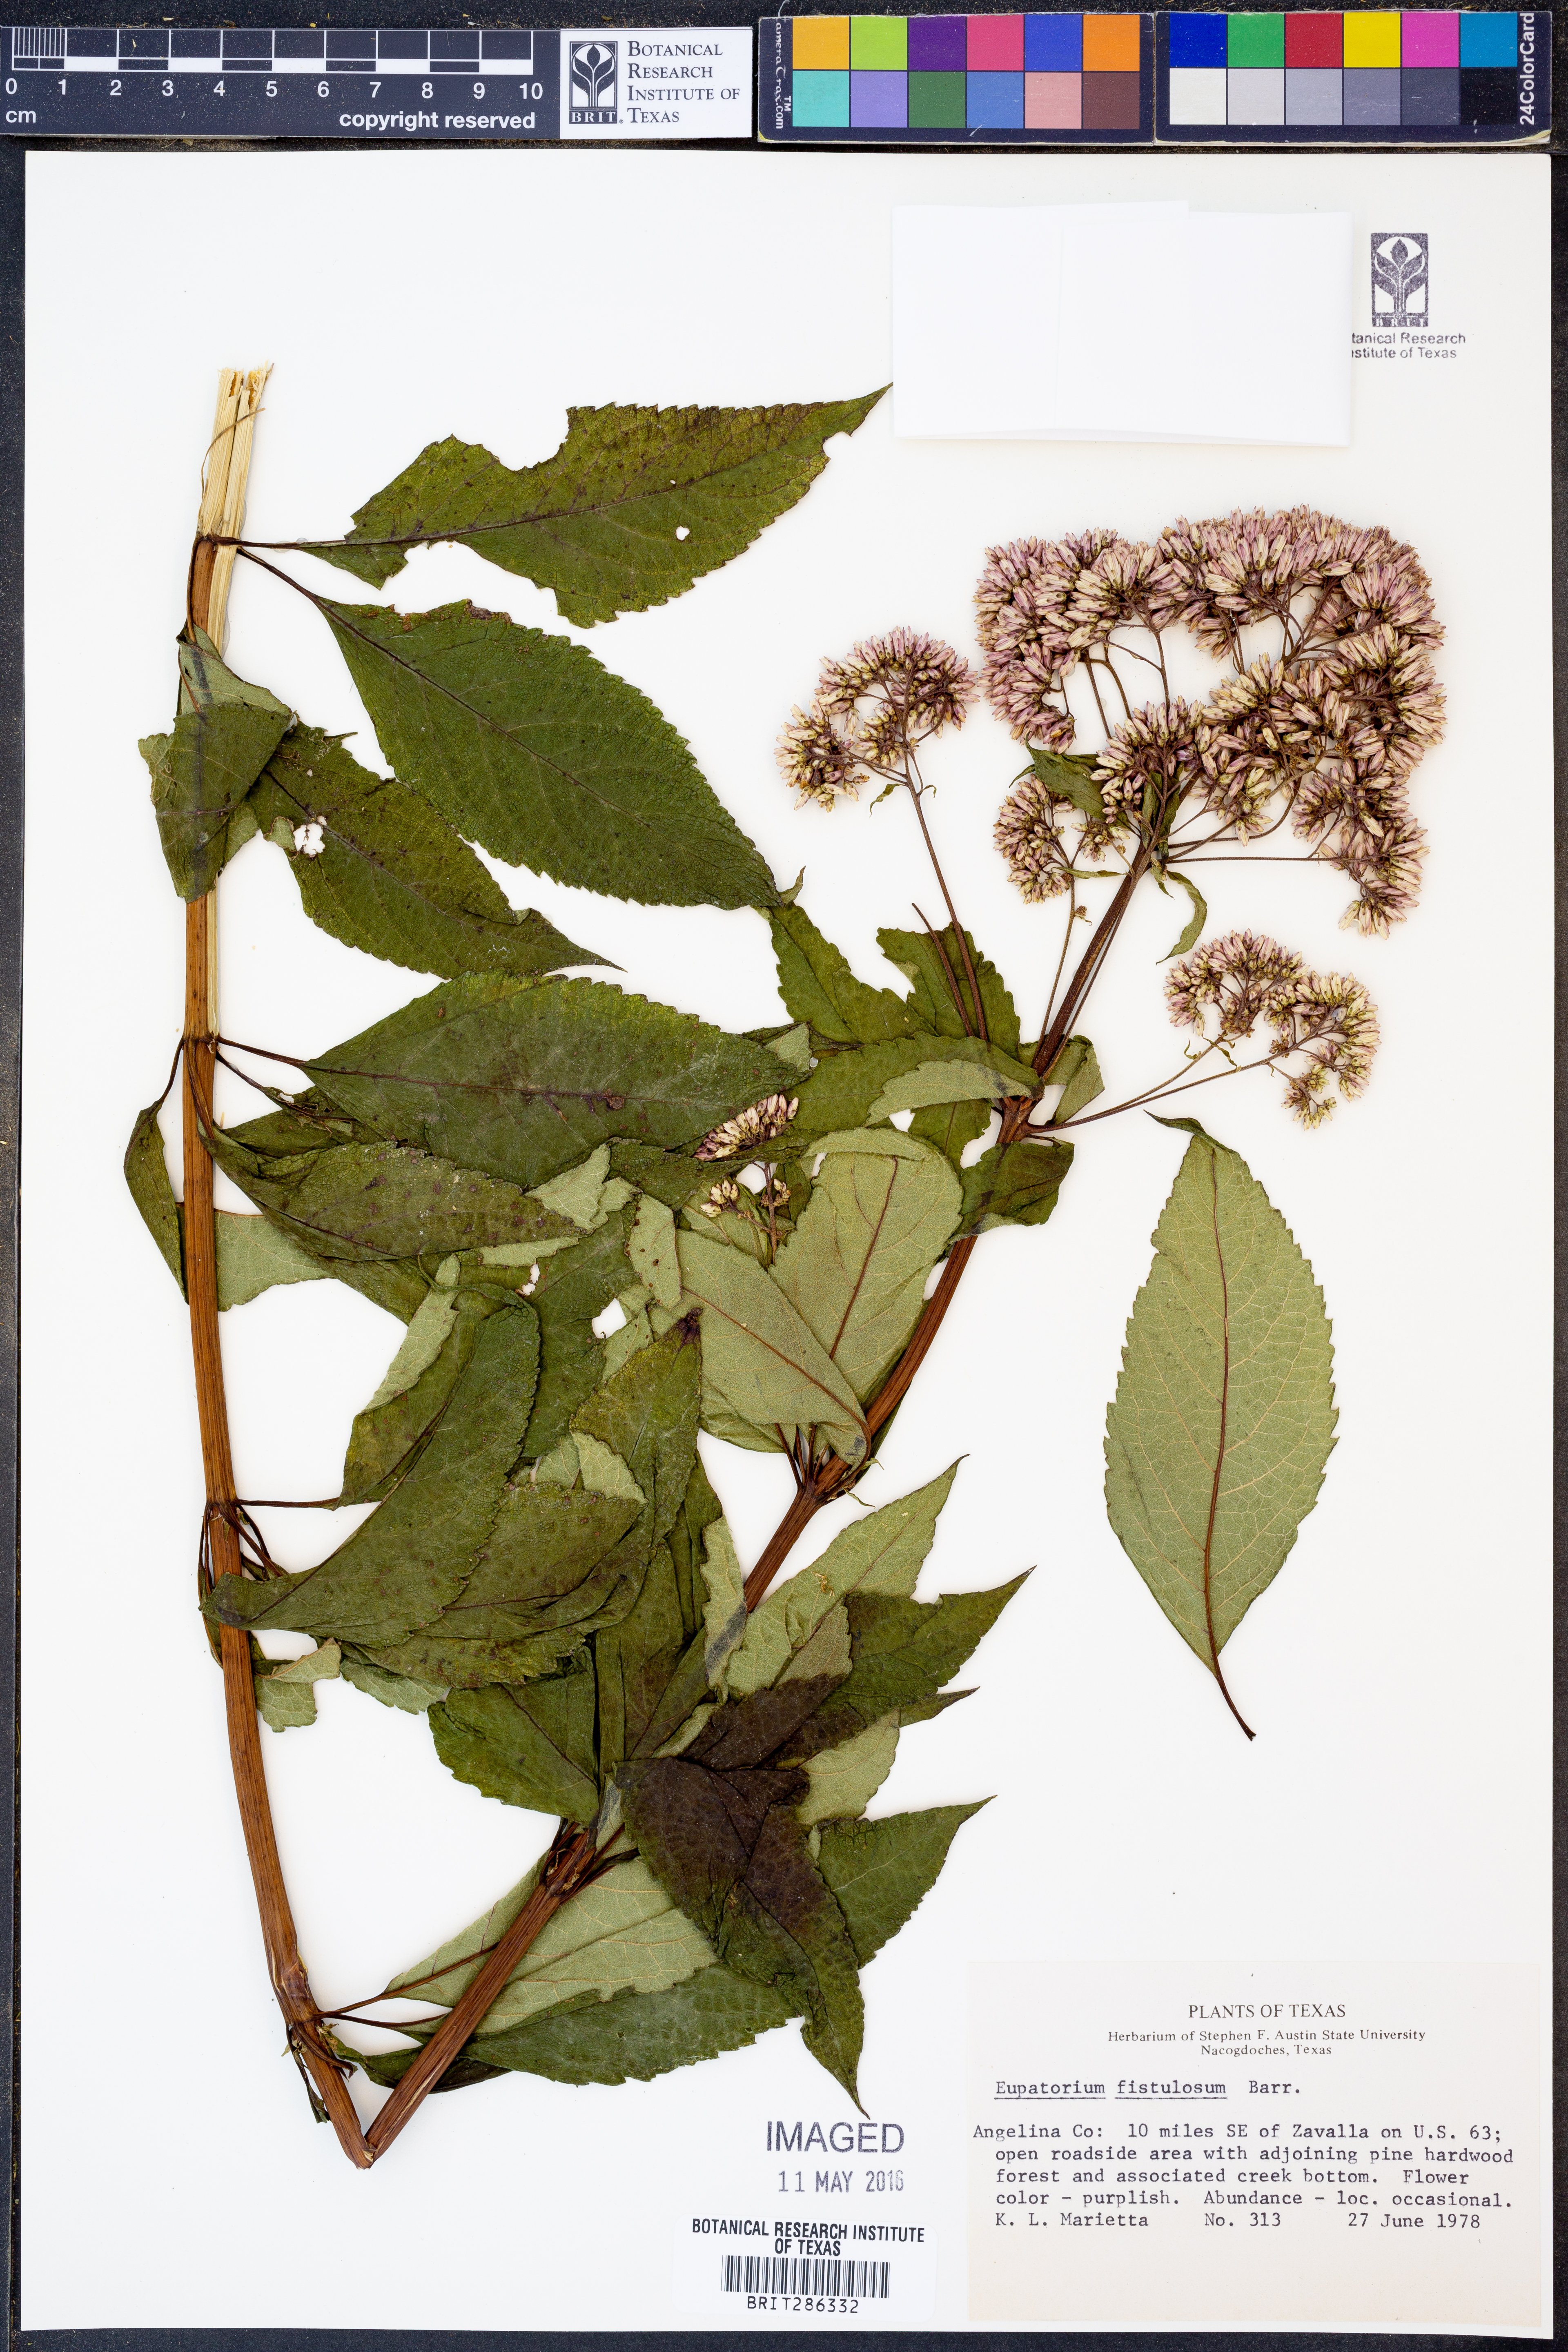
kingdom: Plantae
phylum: Tracheophyta
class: Magnoliopsida
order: Asterales
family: Asteraceae
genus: Eutrochium
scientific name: Eutrochium fistulosum
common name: Trumpetweed
